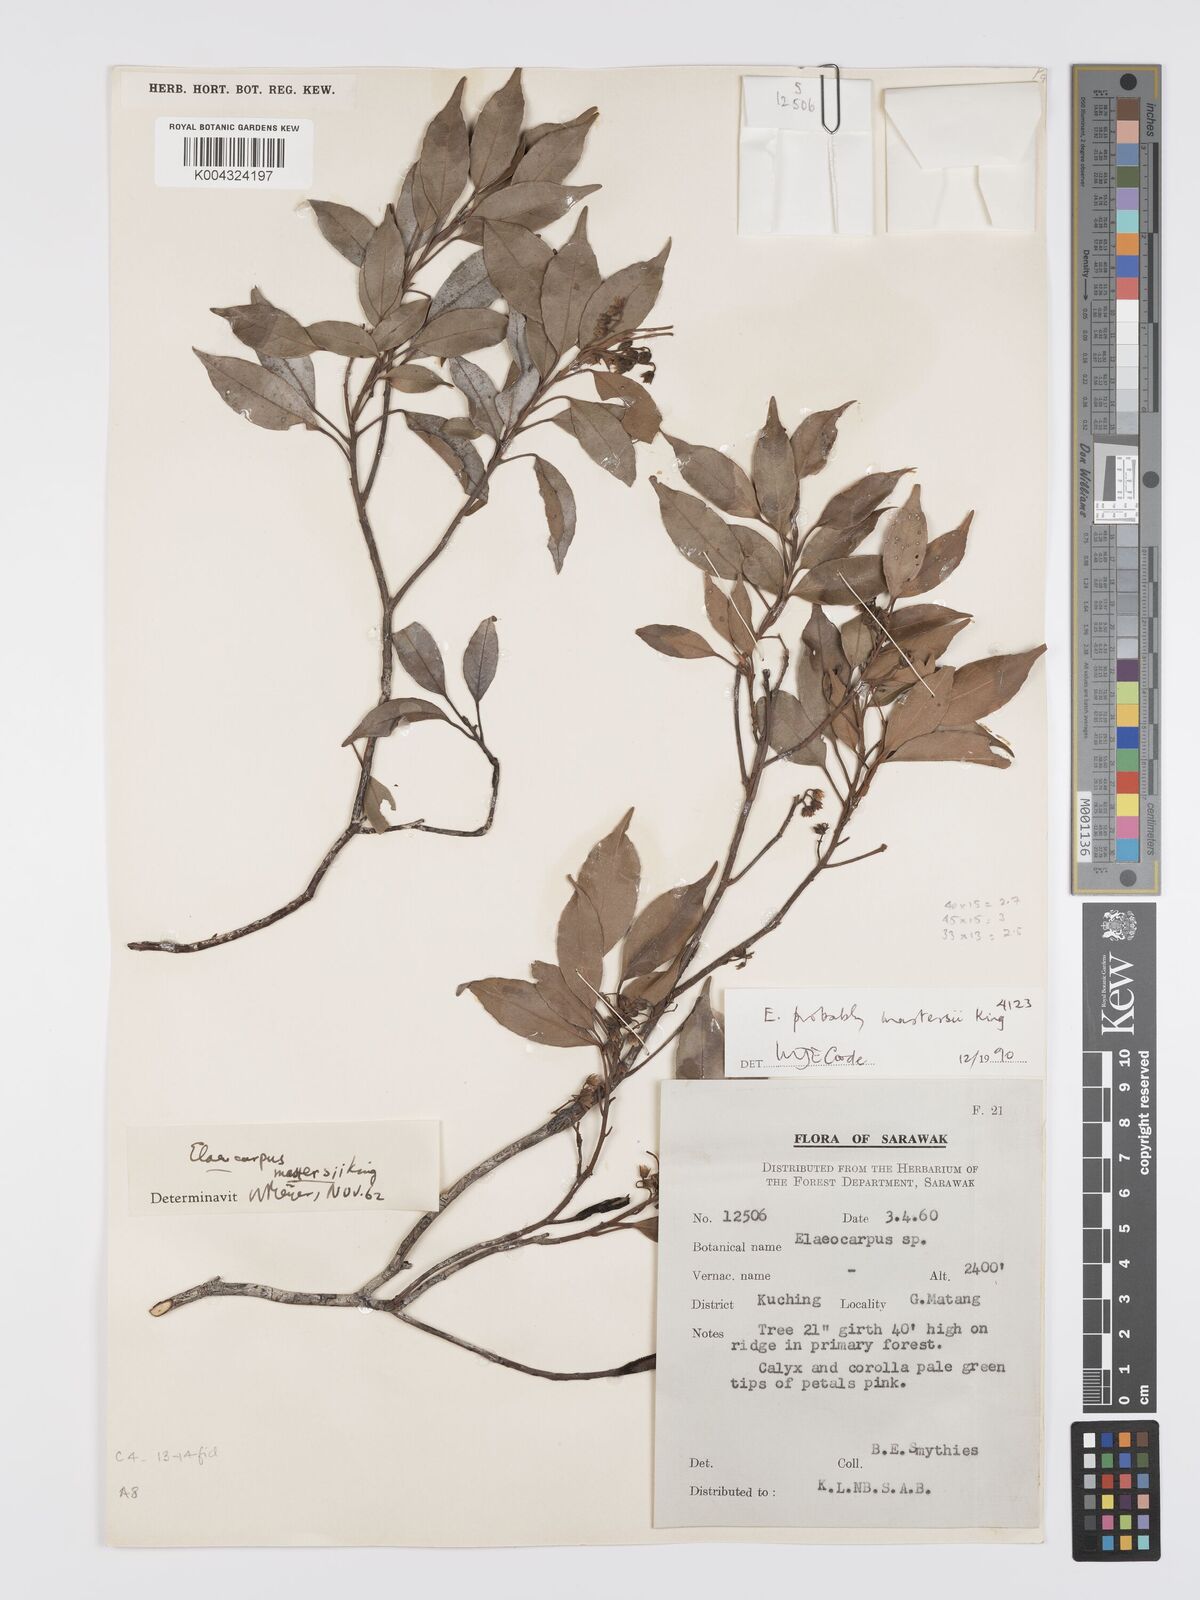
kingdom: Plantae
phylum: Tracheophyta
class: Magnoliopsida
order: Oxalidales
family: Elaeocarpaceae
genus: Elaeocarpus
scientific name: Elaeocarpus mastersii
